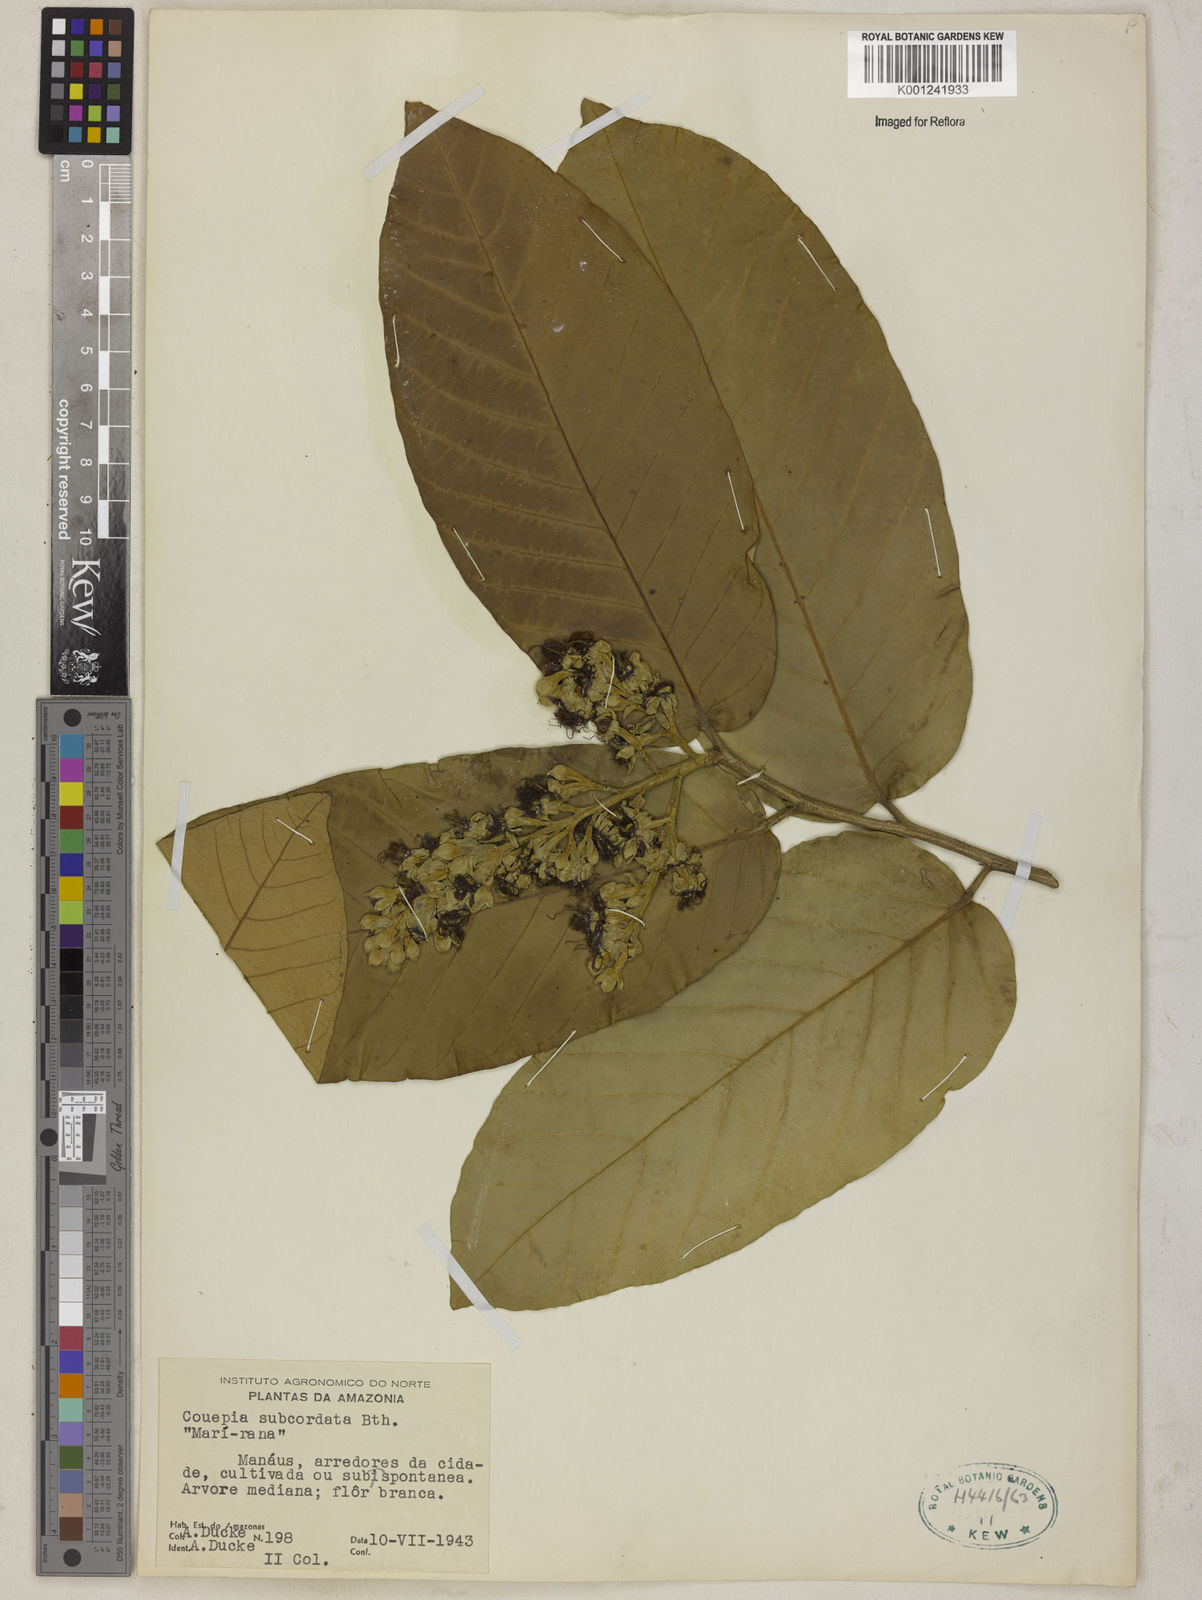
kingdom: Plantae
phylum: Tracheophyta
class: Magnoliopsida
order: Malpighiales
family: Chrysobalanaceae
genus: Couepia
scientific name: Couepia subcordata
